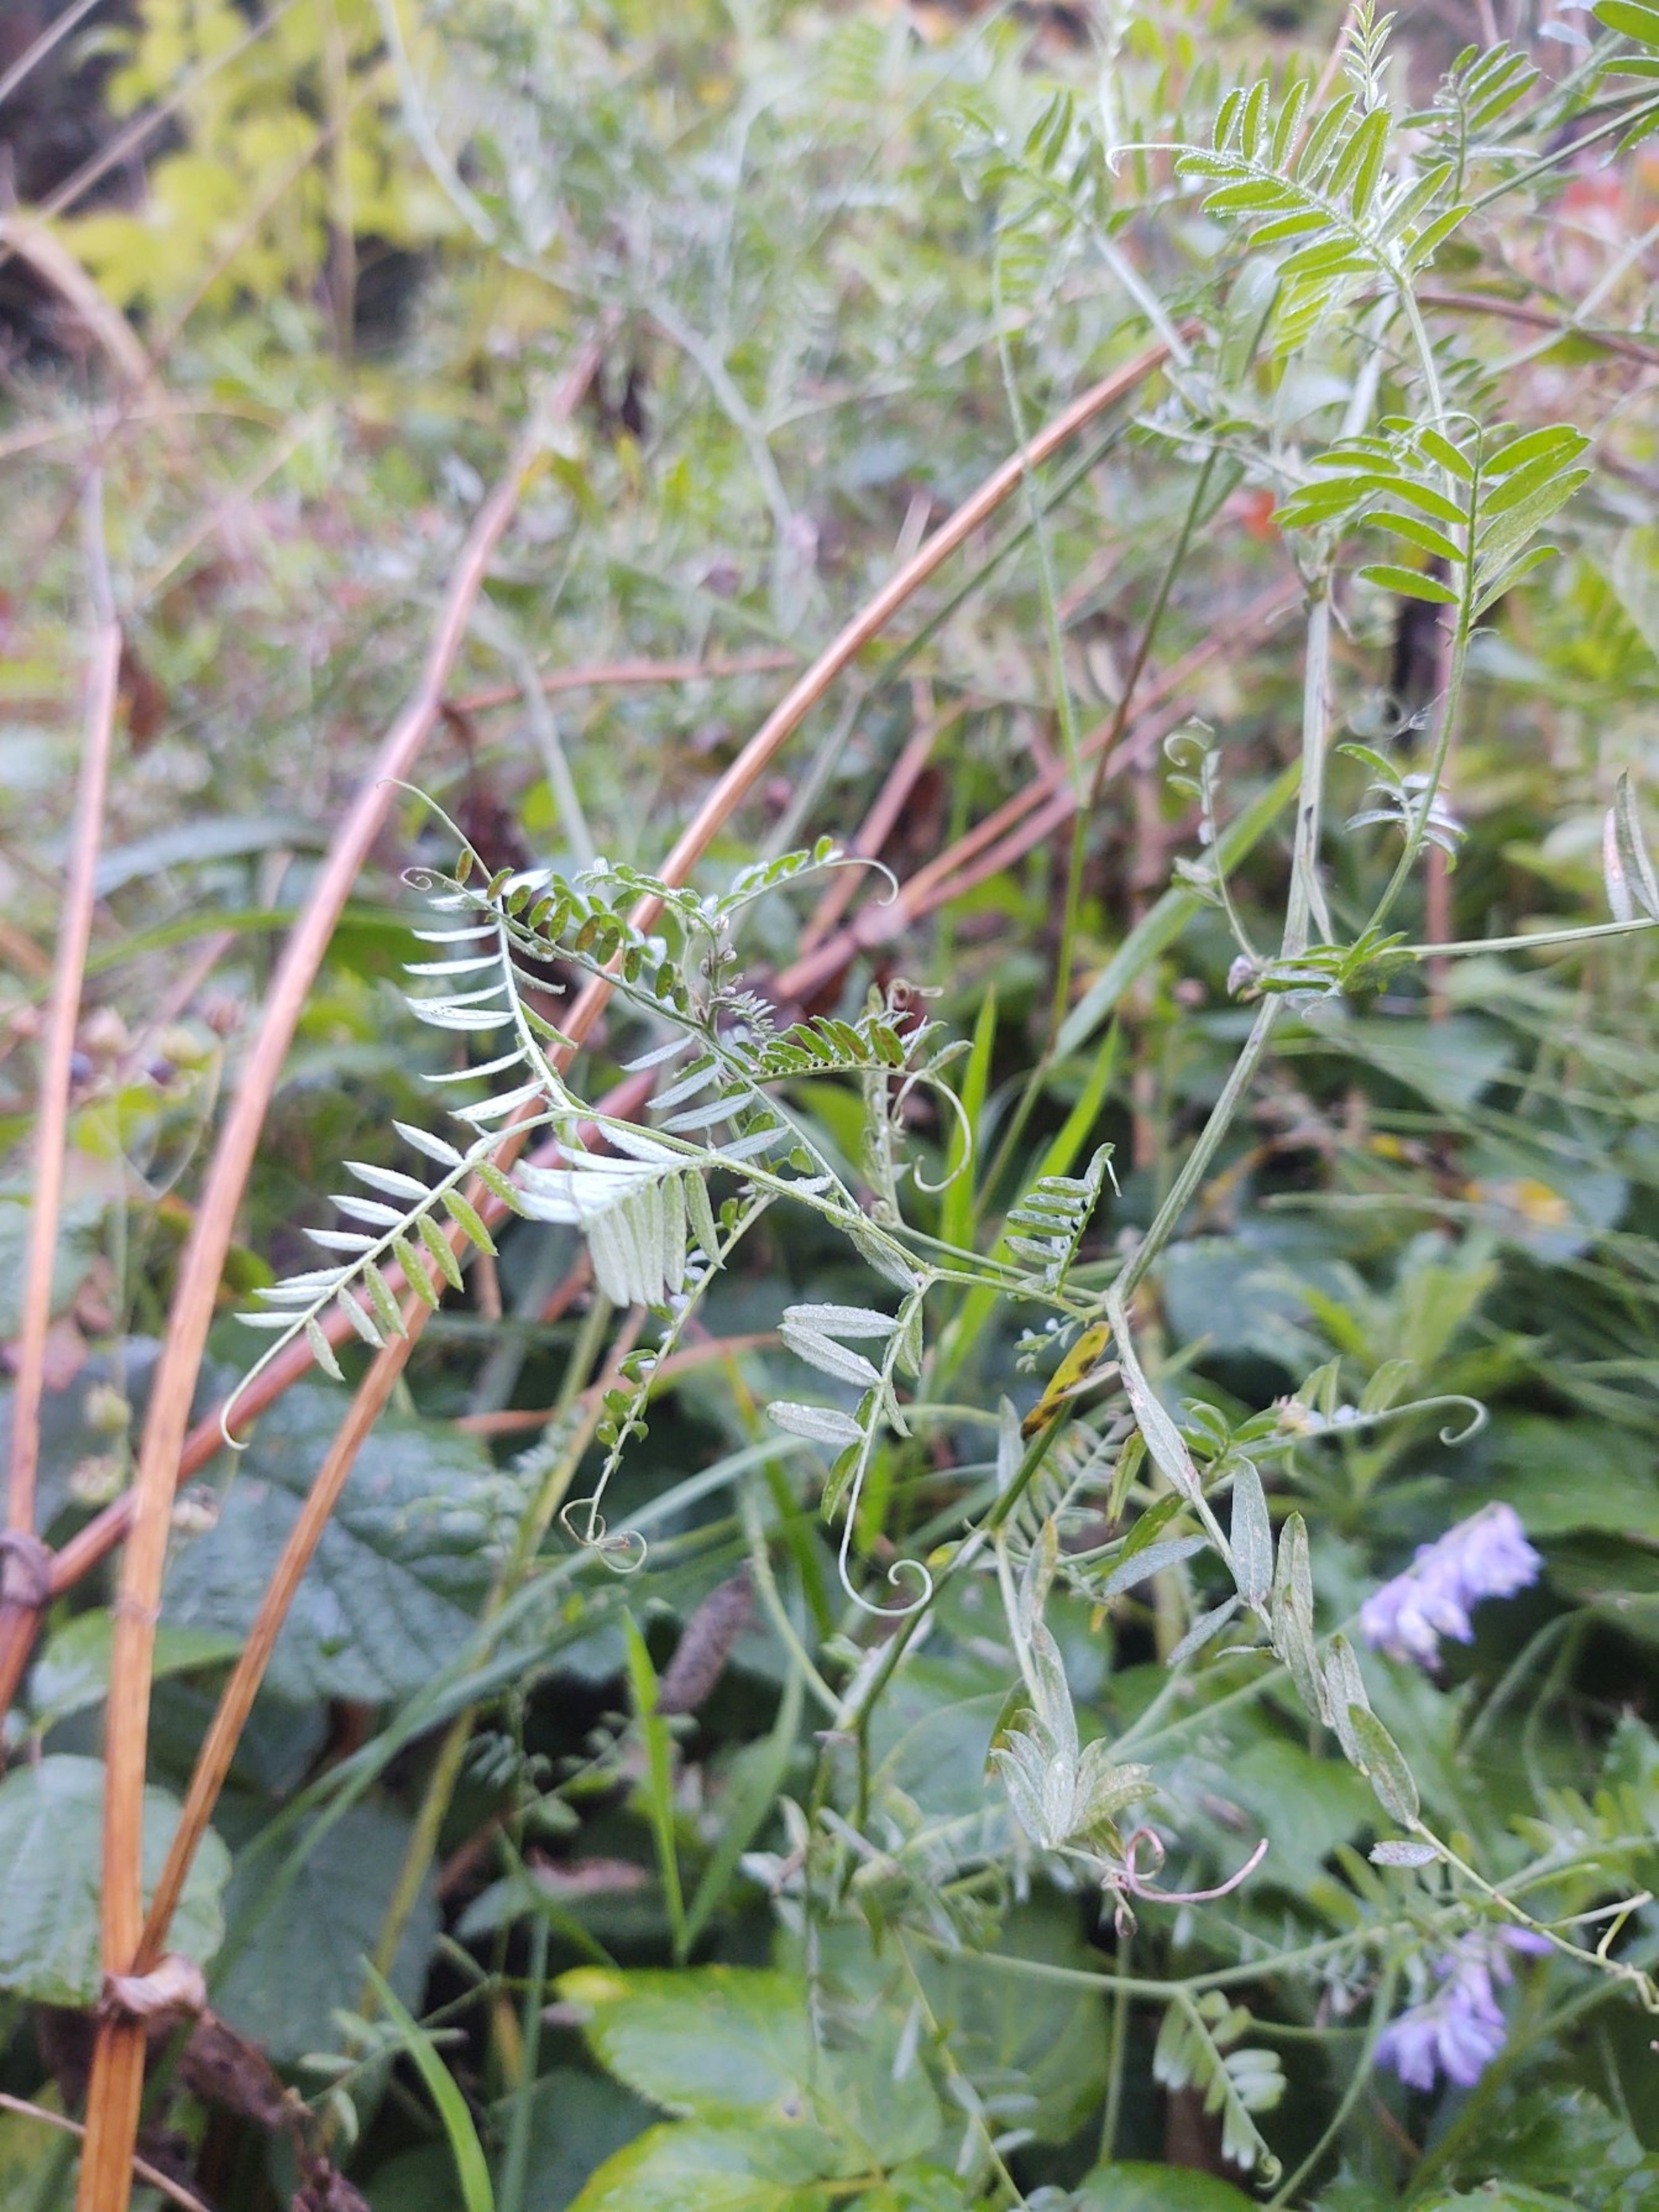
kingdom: Plantae
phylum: Tracheophyta
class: Magnoliopsida
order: Fabales
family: Fabaceae
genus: Vicia
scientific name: Vicia cracca
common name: Muse-vikke
